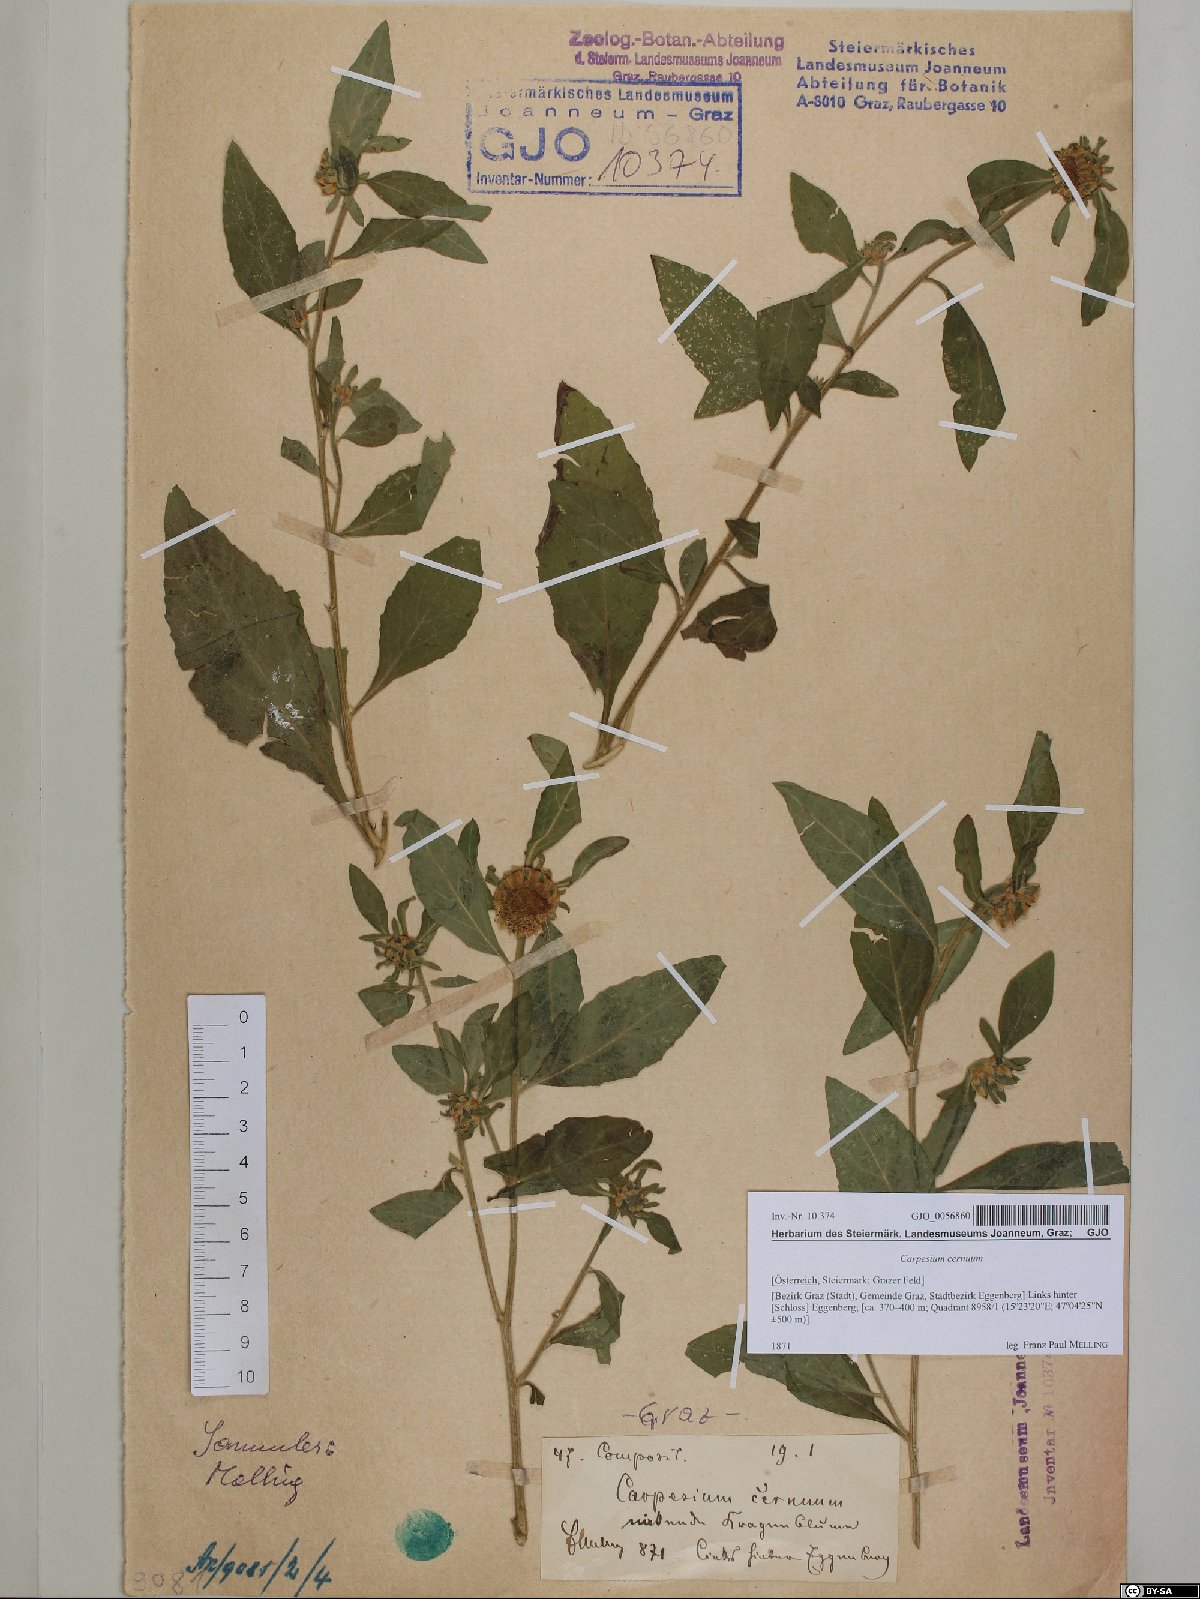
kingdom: Plantae
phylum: Tracheophyta
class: Magnoliopsida
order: Asterales
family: Asteraceae
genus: Carpesium
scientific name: Carpesium cernuum
